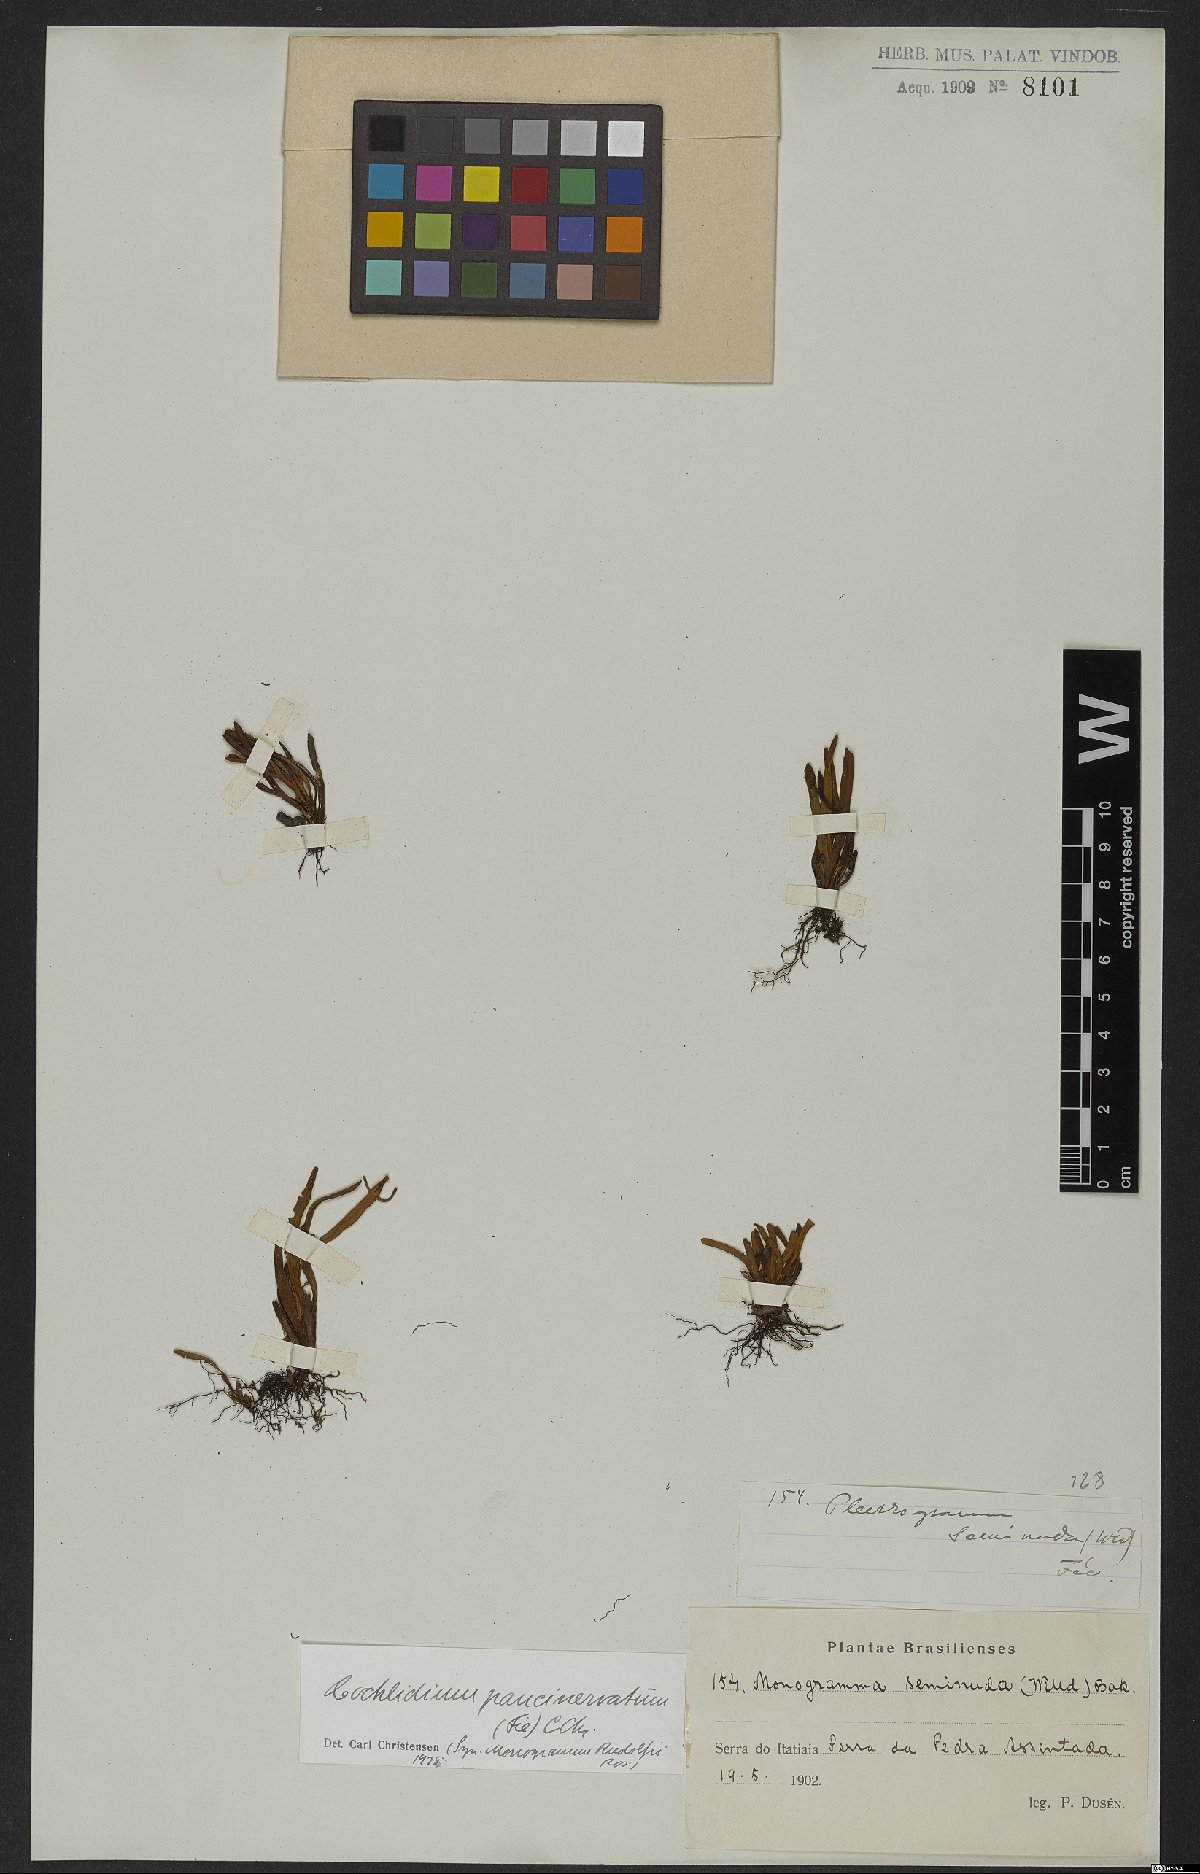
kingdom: Plantae
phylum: Tracheophyta
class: Polypodiopsida
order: Polypodiales
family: Polypodiaceae
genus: Cochlidium
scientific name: Cochlidium punctatum
